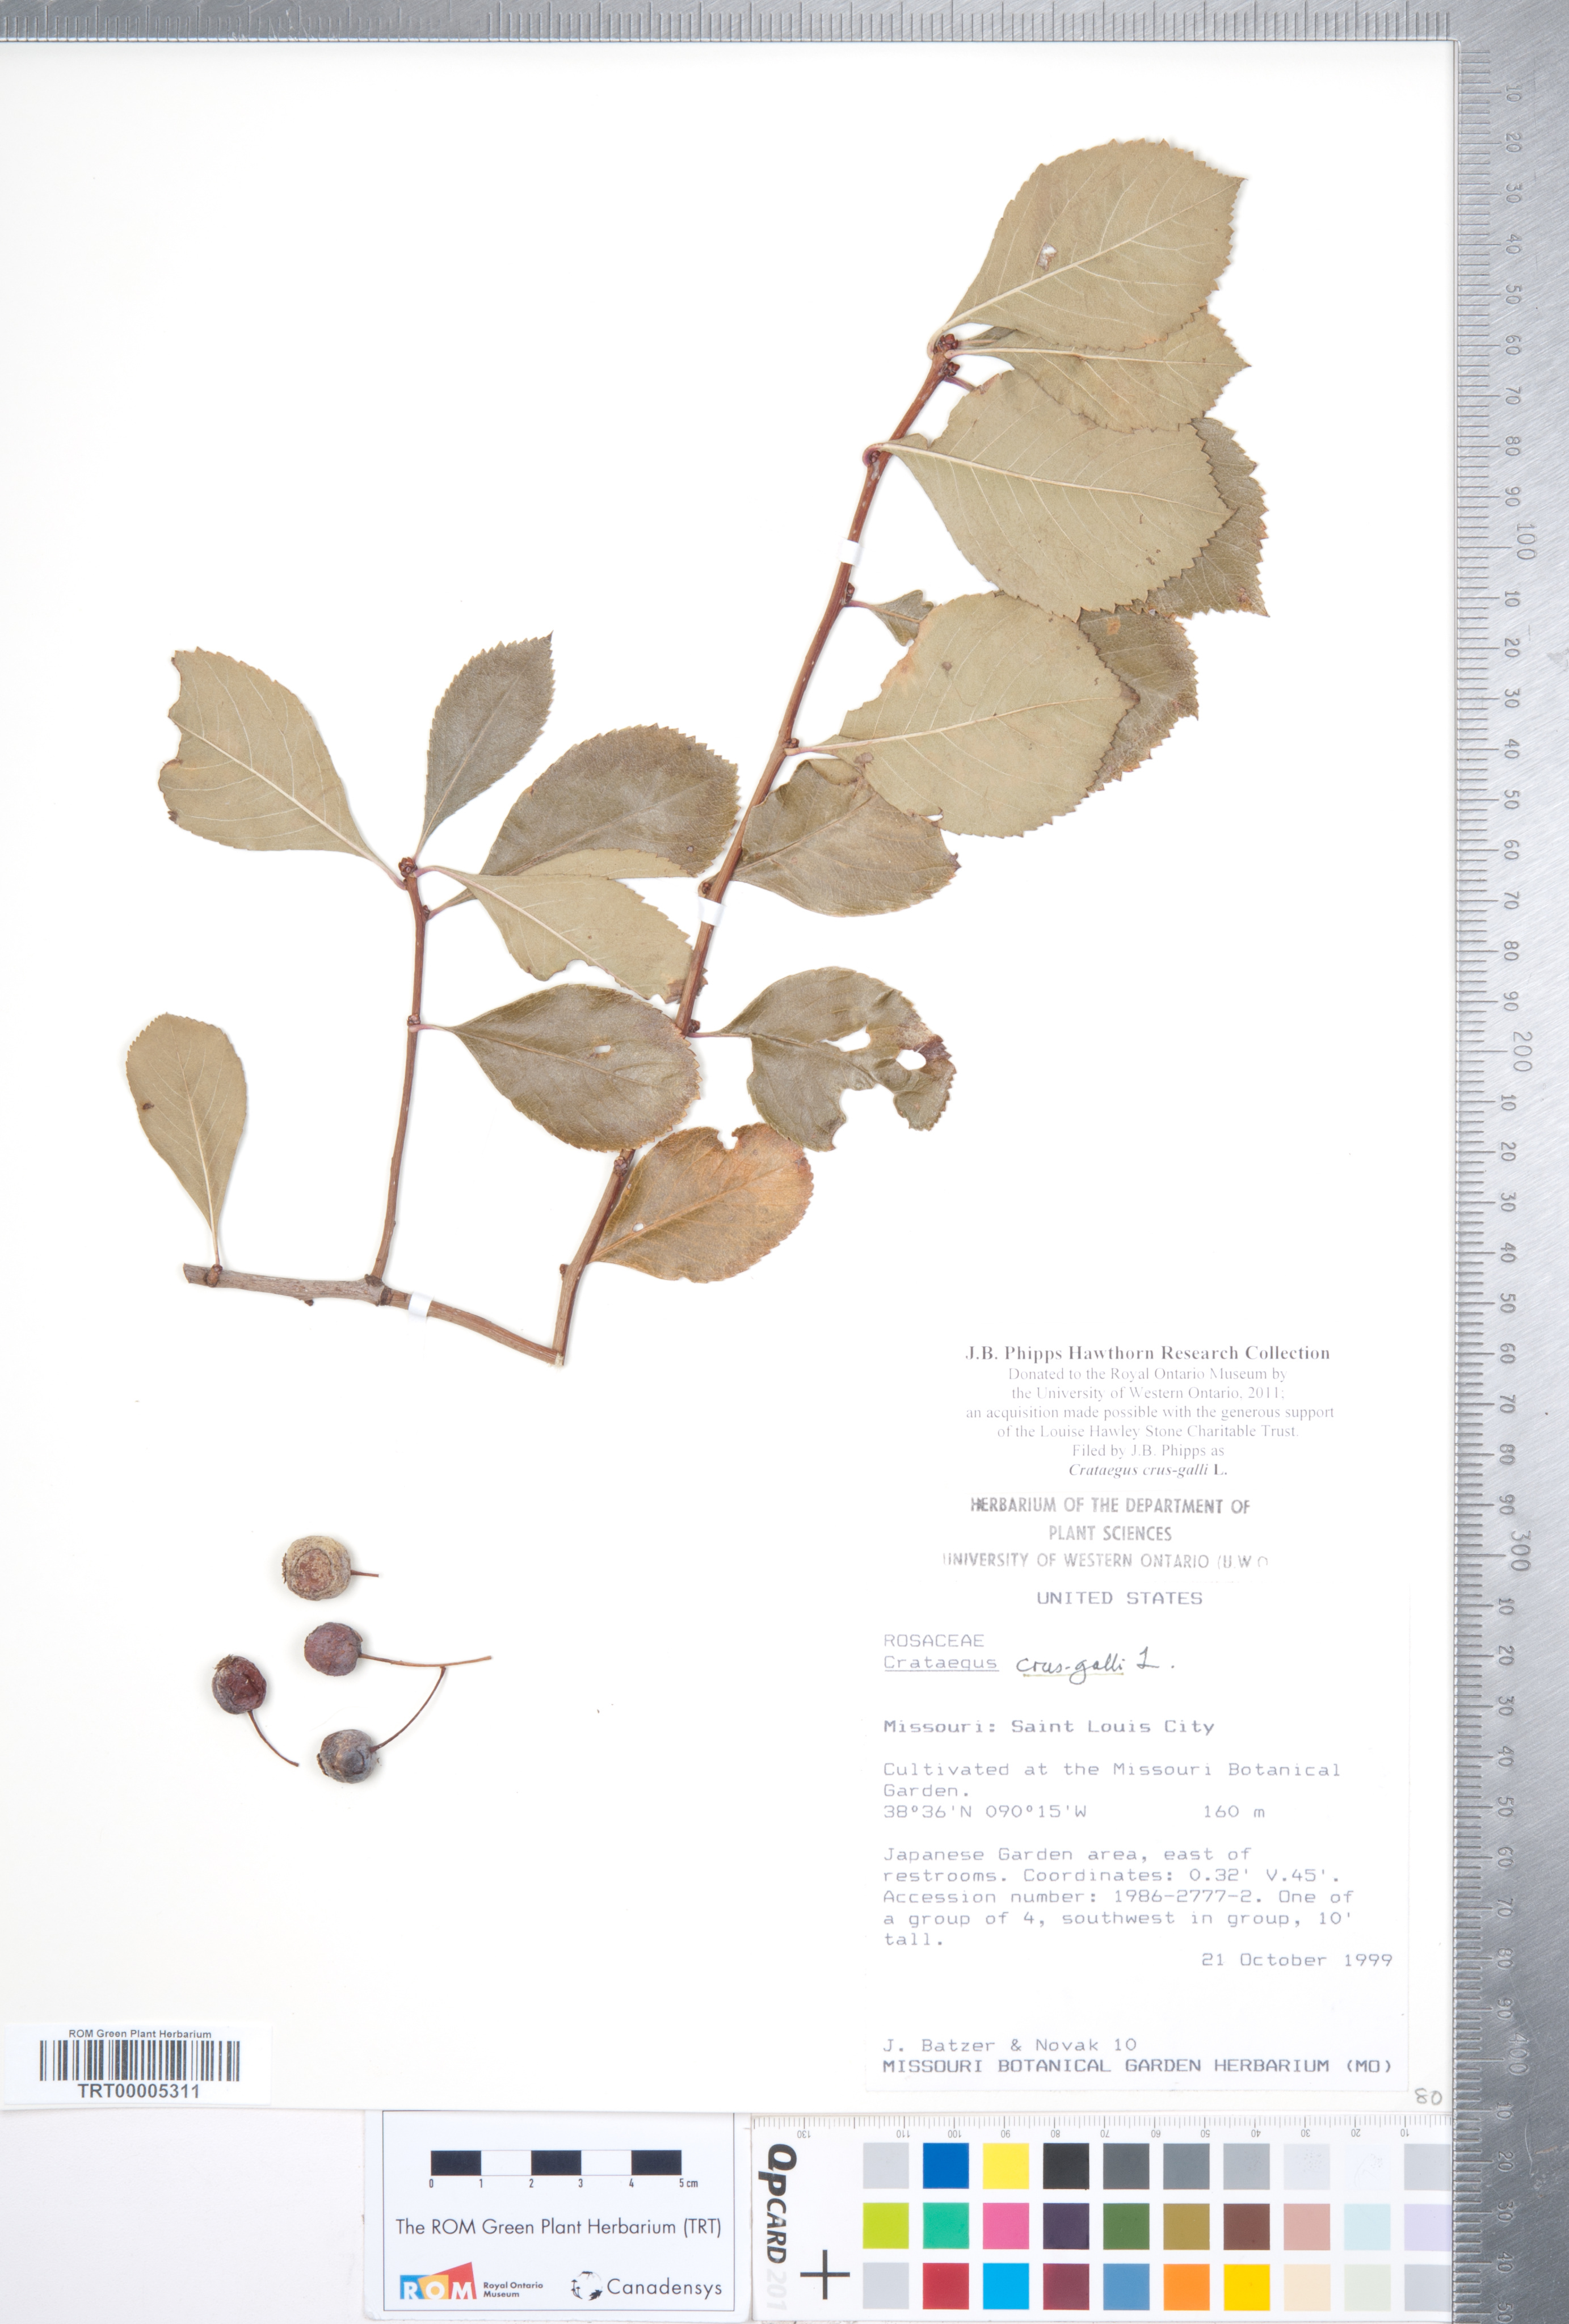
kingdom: Plantae
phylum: Tracheophyta
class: Magnoliopsida
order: Rosales
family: Rosaceae
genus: Crataegus
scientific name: Crataegus crus-galli
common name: Cockspurthorn
